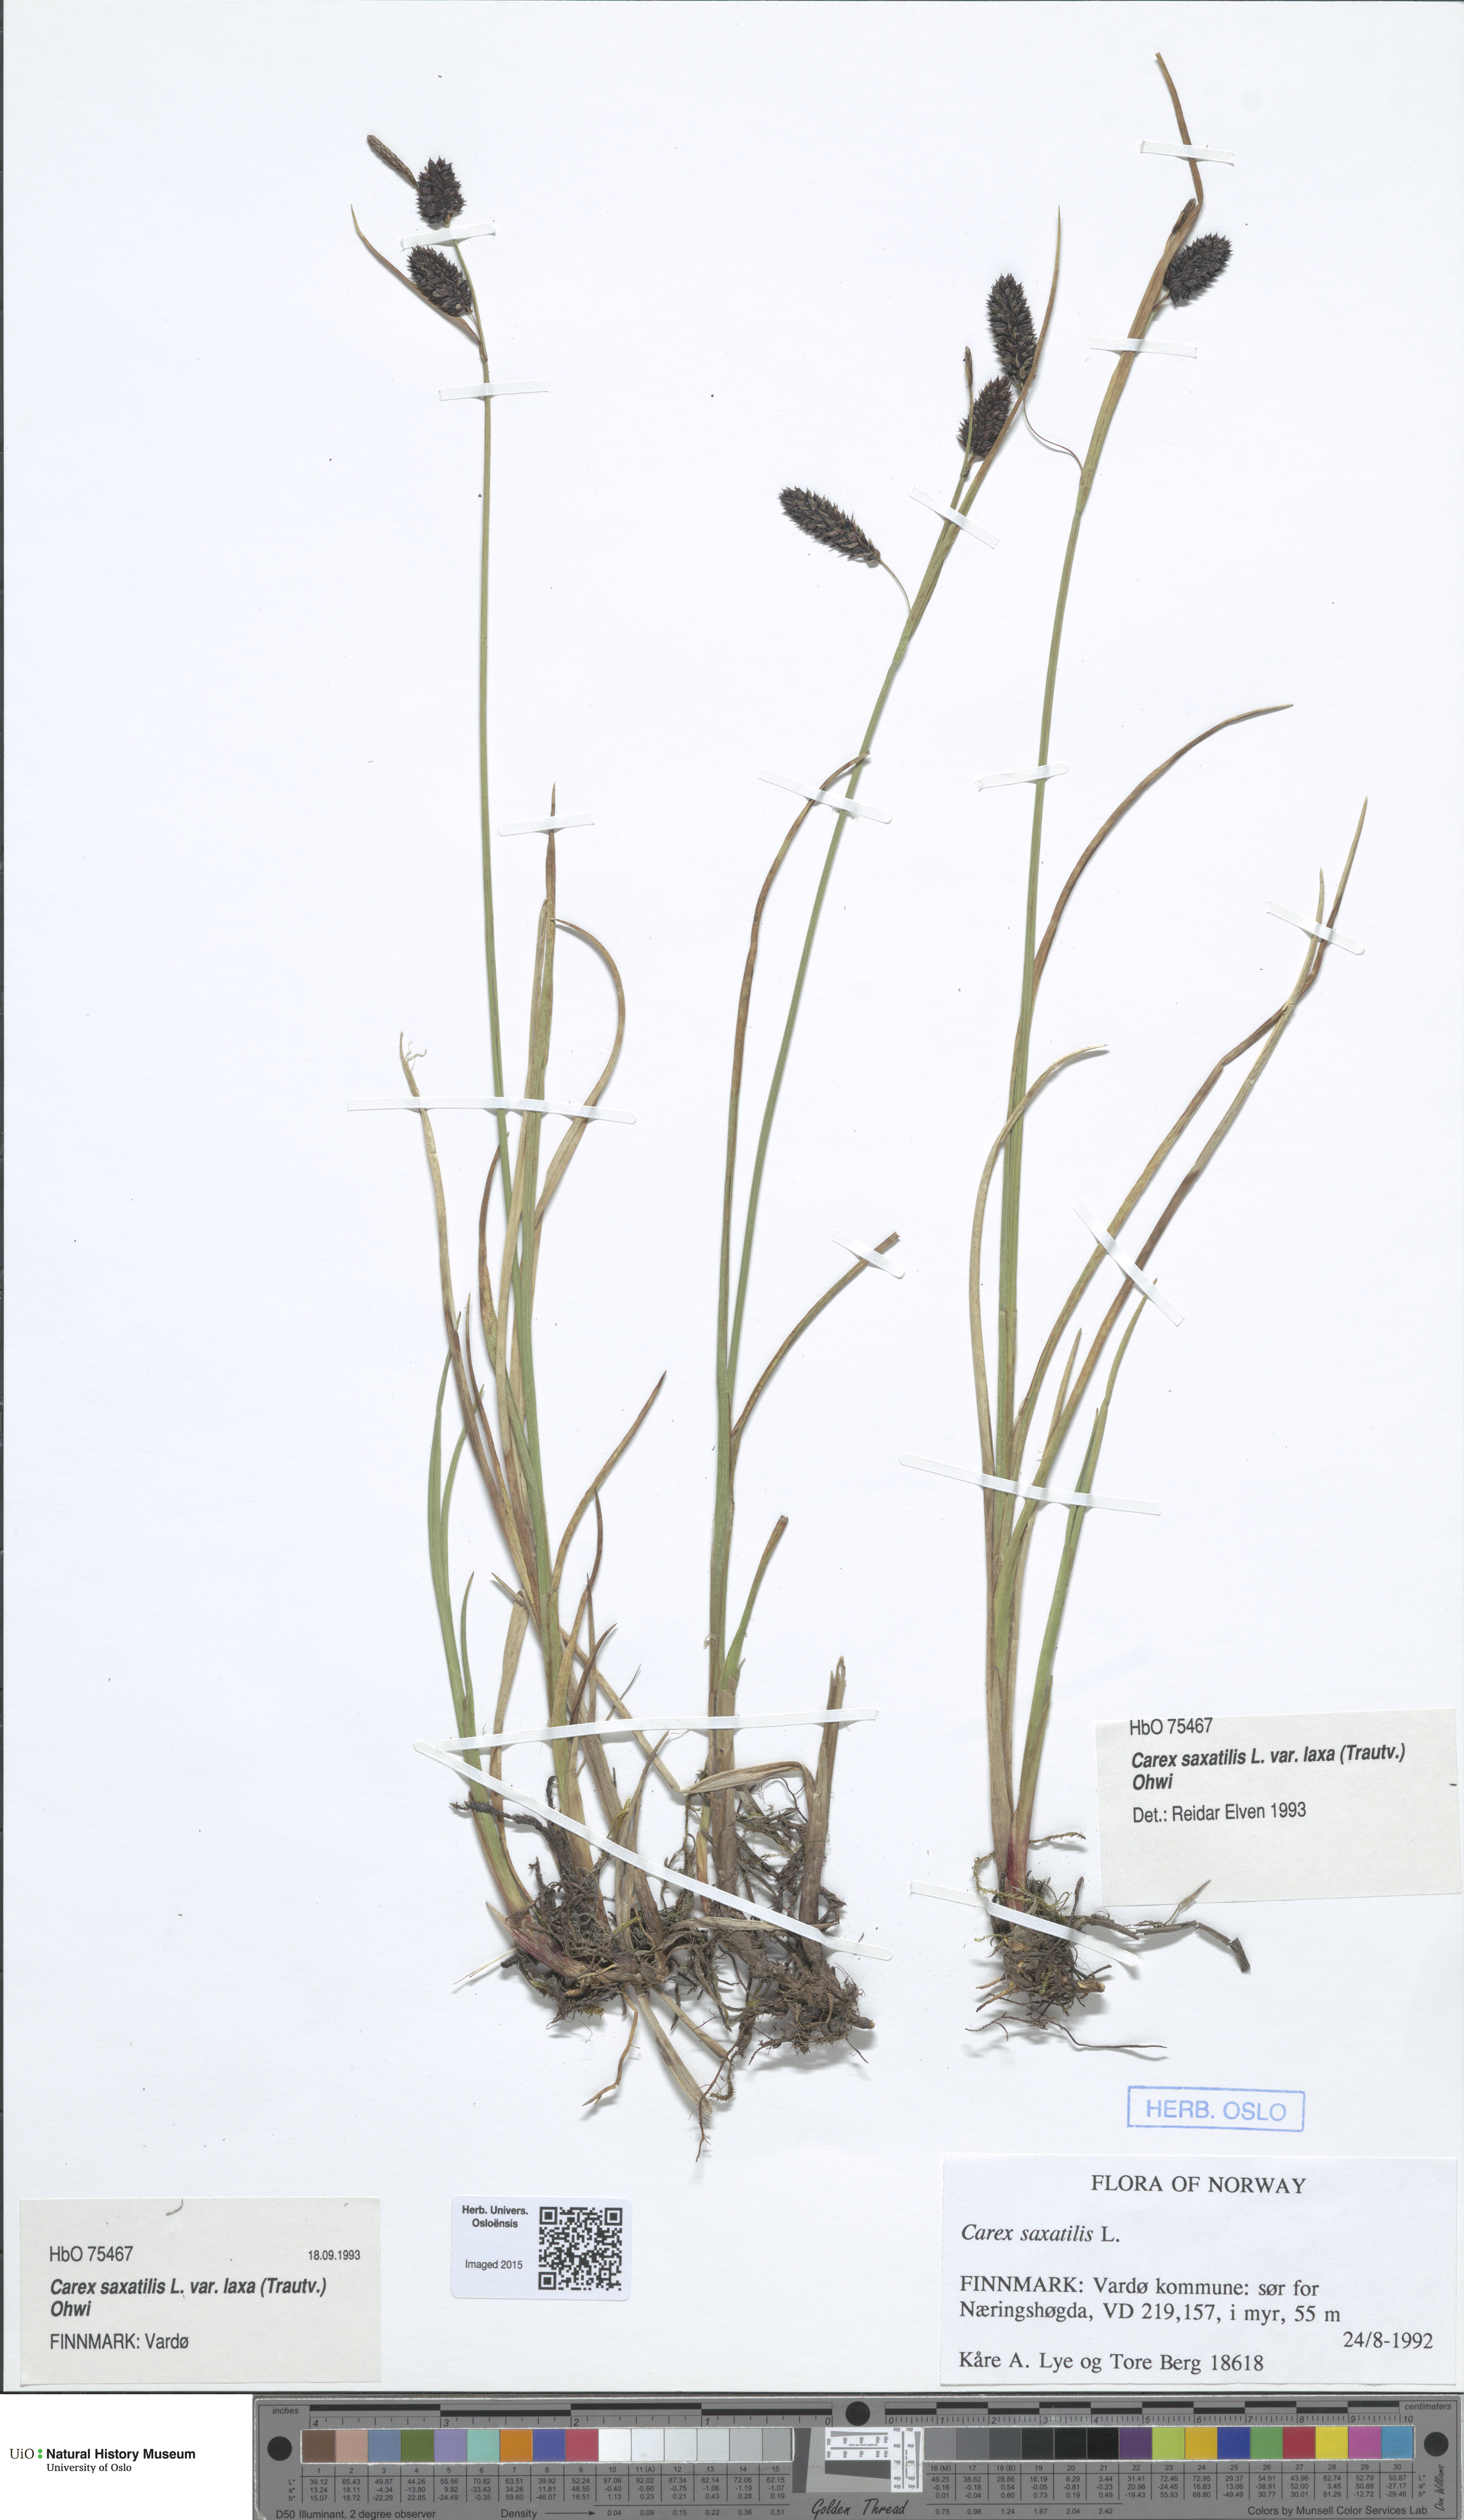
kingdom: Plantae
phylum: Tracheophyta
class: Liliopsida
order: Poales
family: Cyperaceae
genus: Carex
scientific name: Carex saxatilis
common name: Russet sedge
